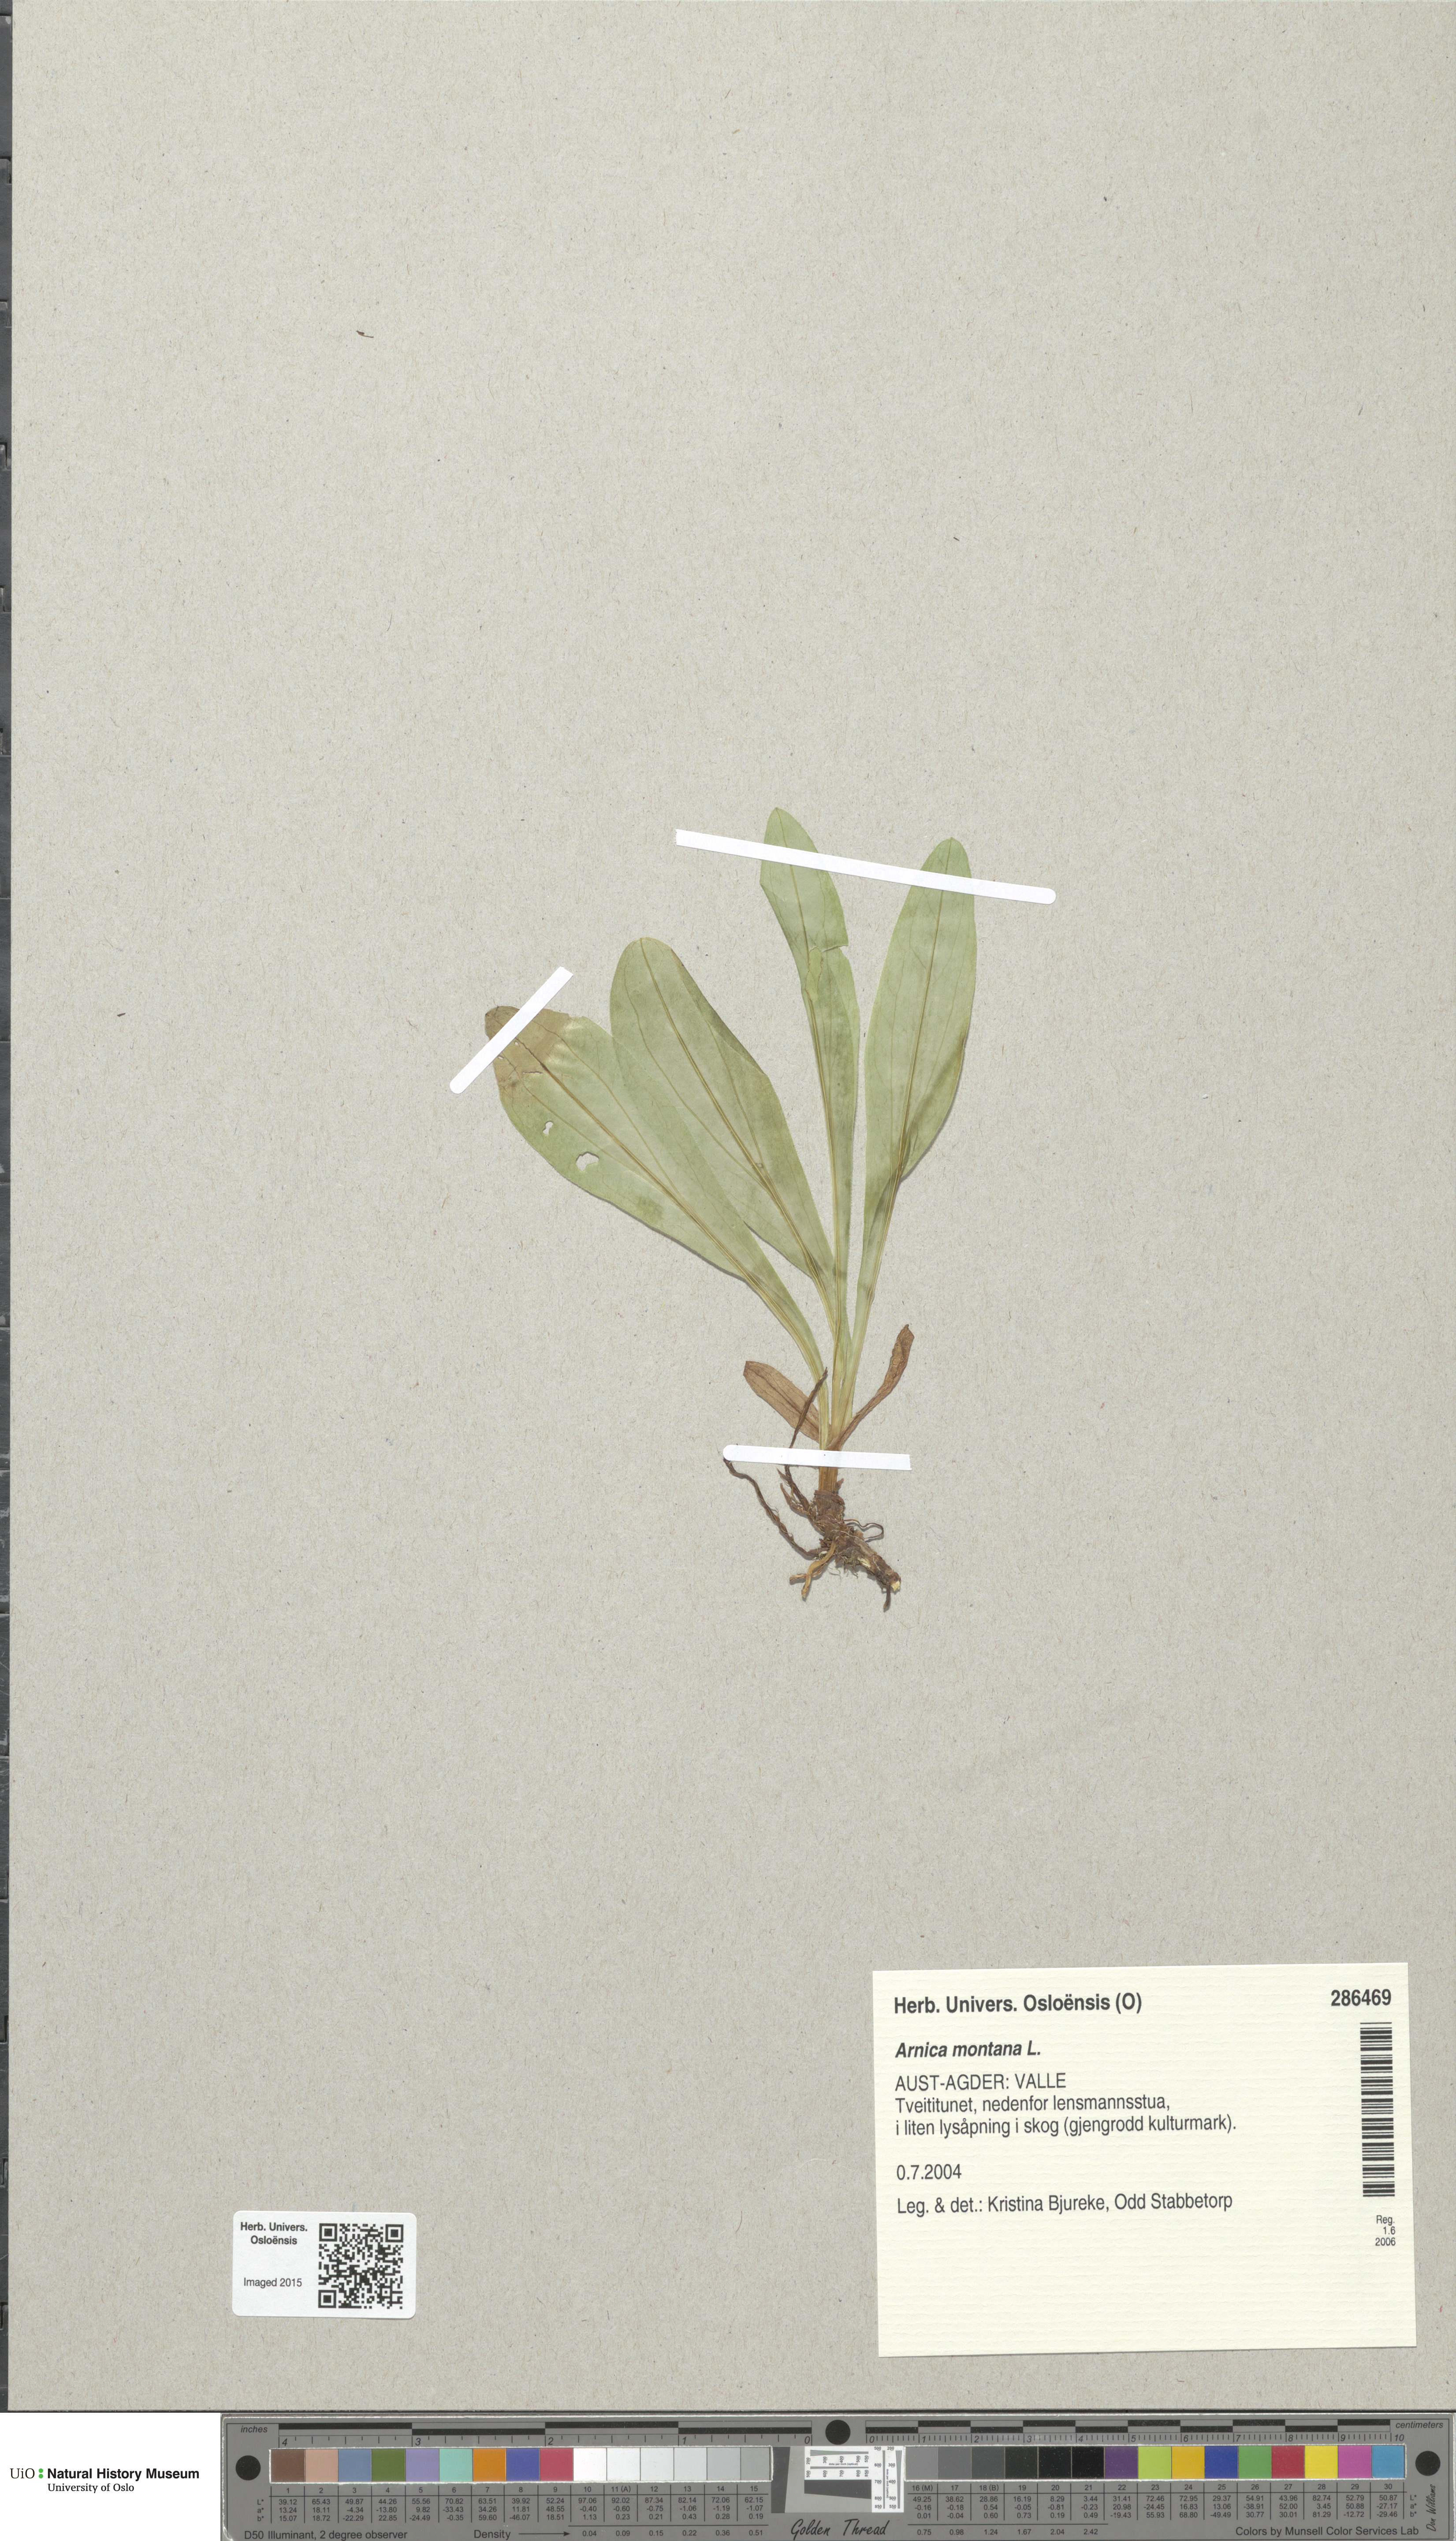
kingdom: Plantae
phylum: Tracheophyta
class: Magnoliopsida
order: Asterales
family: Asteraceae
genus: Arnica
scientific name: Arnica montana
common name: Leopard's bane
